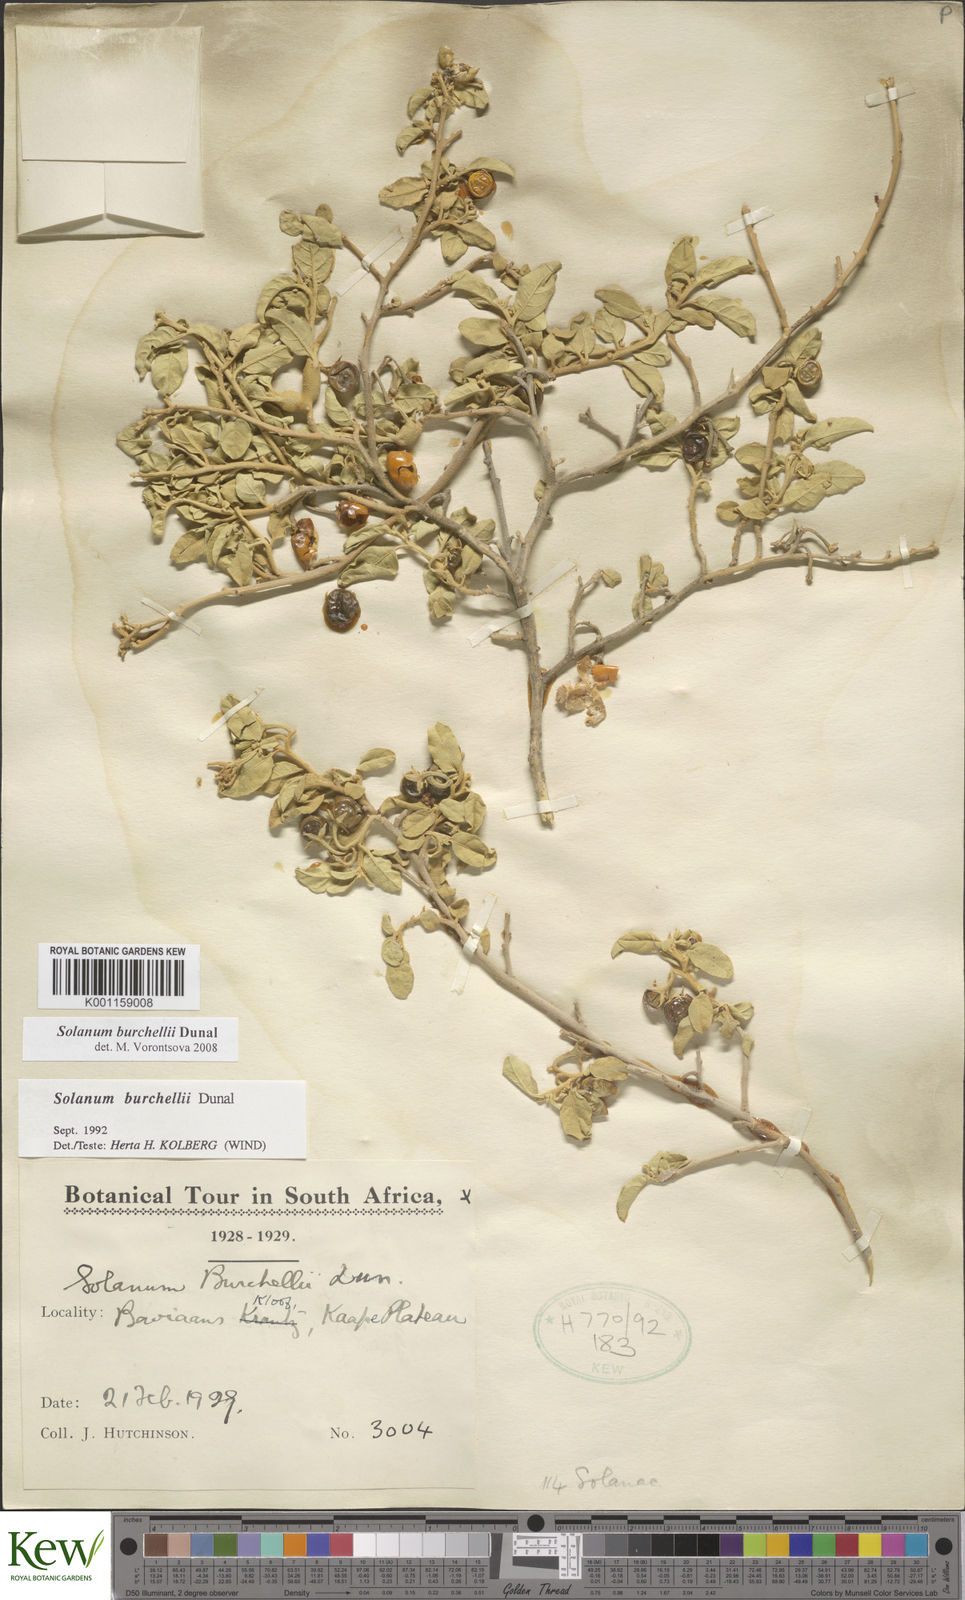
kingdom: Plantae
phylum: Tracheophyta
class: Magnoliopsida
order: Solanales
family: Solanaceae
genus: Solanum
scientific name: Solanum burchellii
